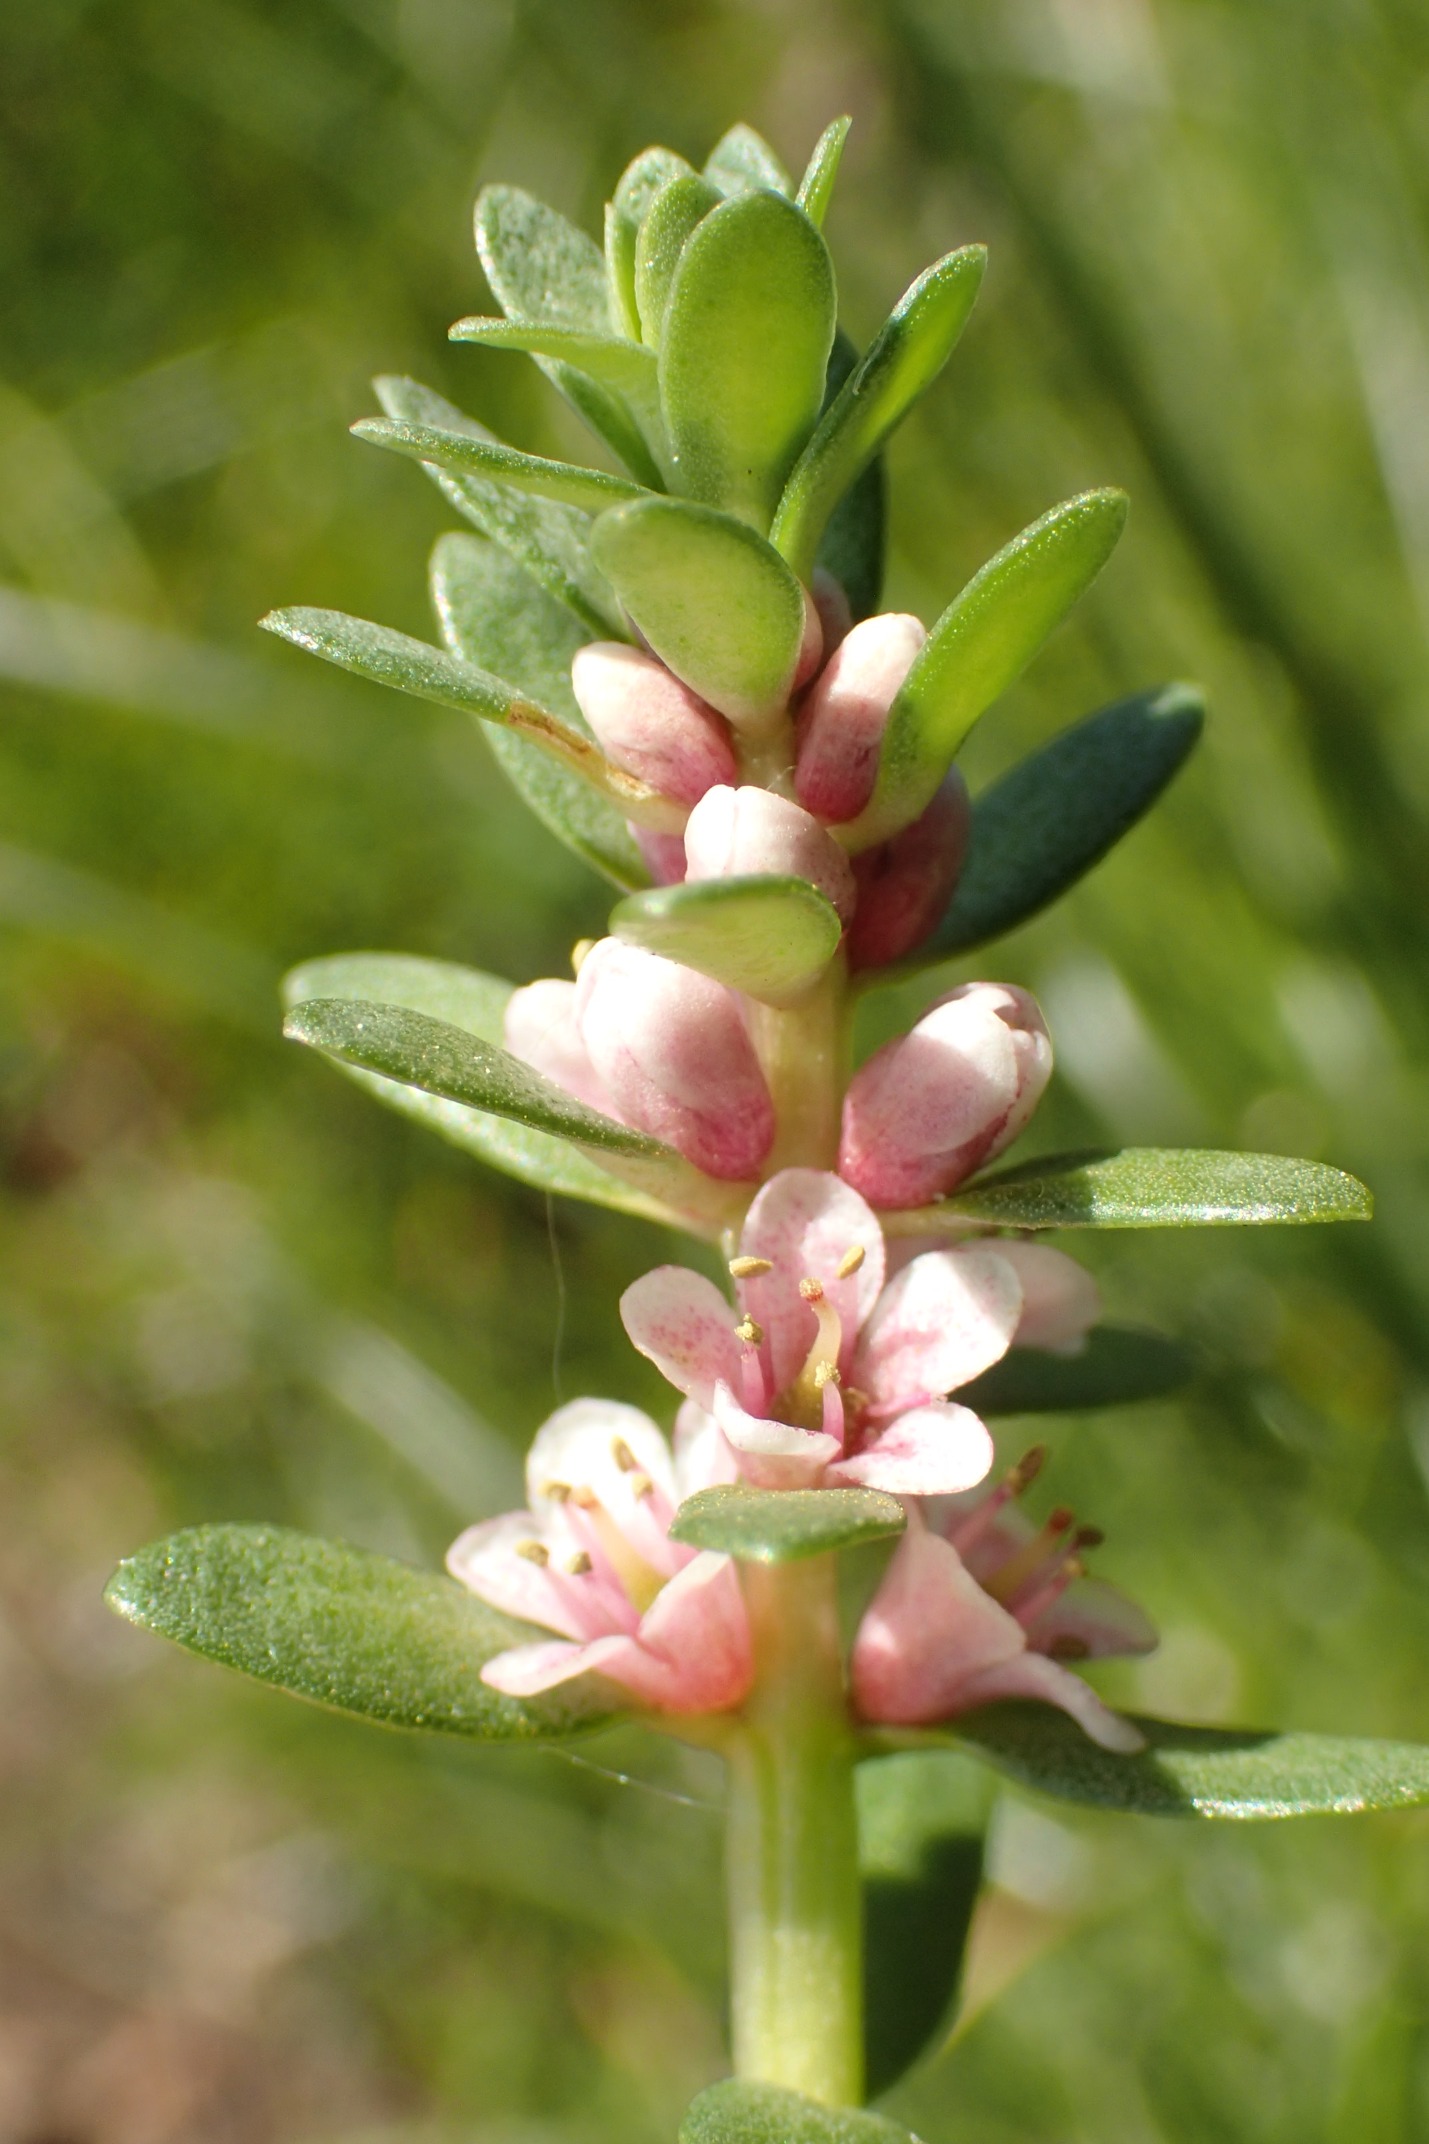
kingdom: Plantae
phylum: Tracheophyta
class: Magnoliopsida
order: Ericales
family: Primulaceae
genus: Lysimachia
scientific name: Lysimachia maritima
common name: Sandkryb
